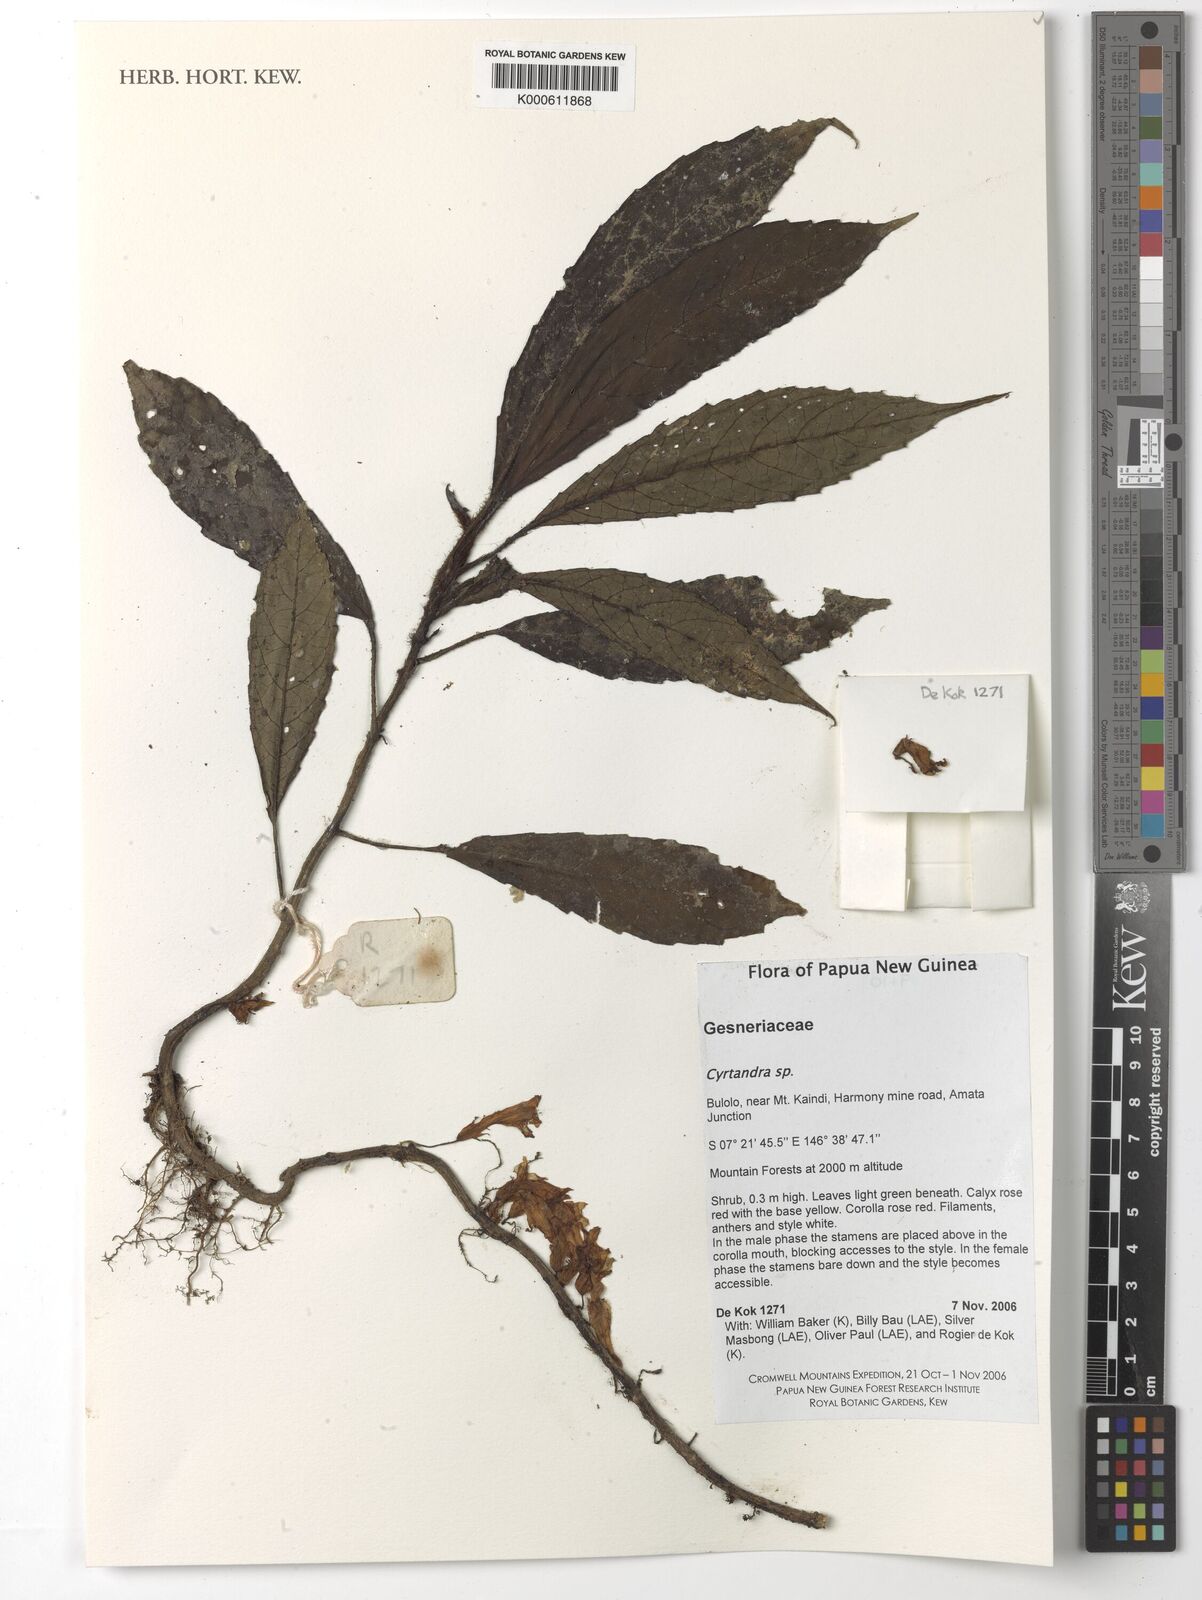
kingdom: Plantae
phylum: Tracheophyta
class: Magnoliopsida
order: Lamiales
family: Gesneriaceae
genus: Cyrtandra
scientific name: Cyrtandra
